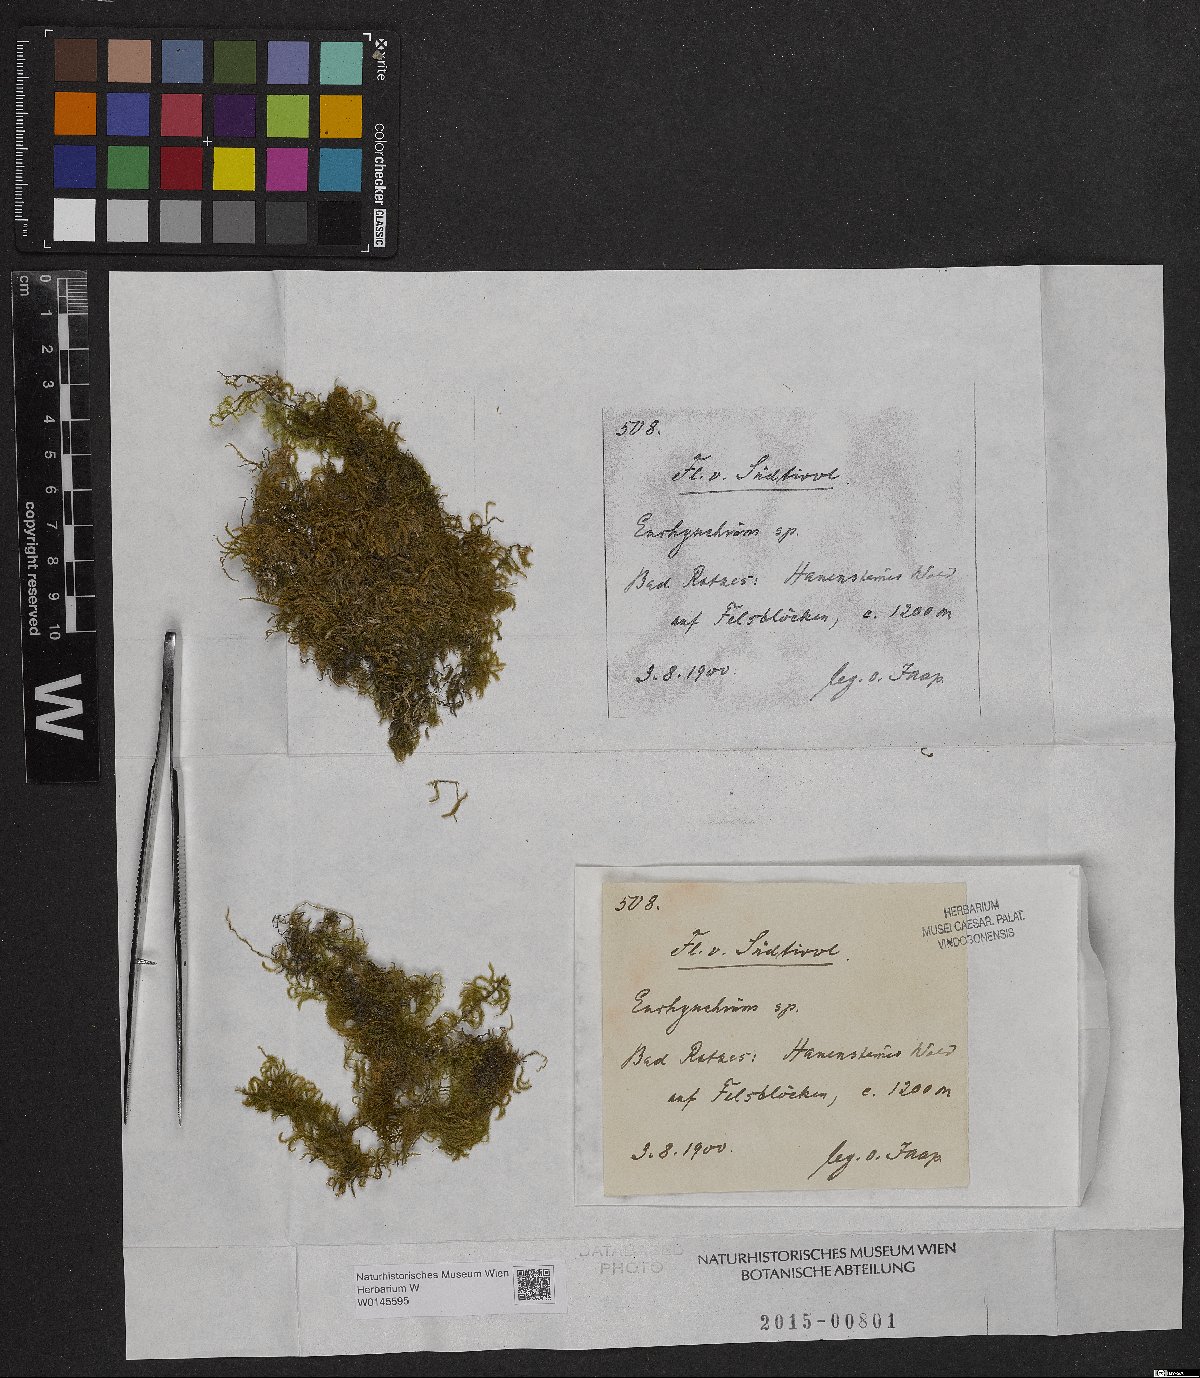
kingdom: Plantae
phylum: Bryophyta
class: Bryopsida
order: Hypnales
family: Brachytheciaceae
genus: Eurhynchium
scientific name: Eurhynchium
